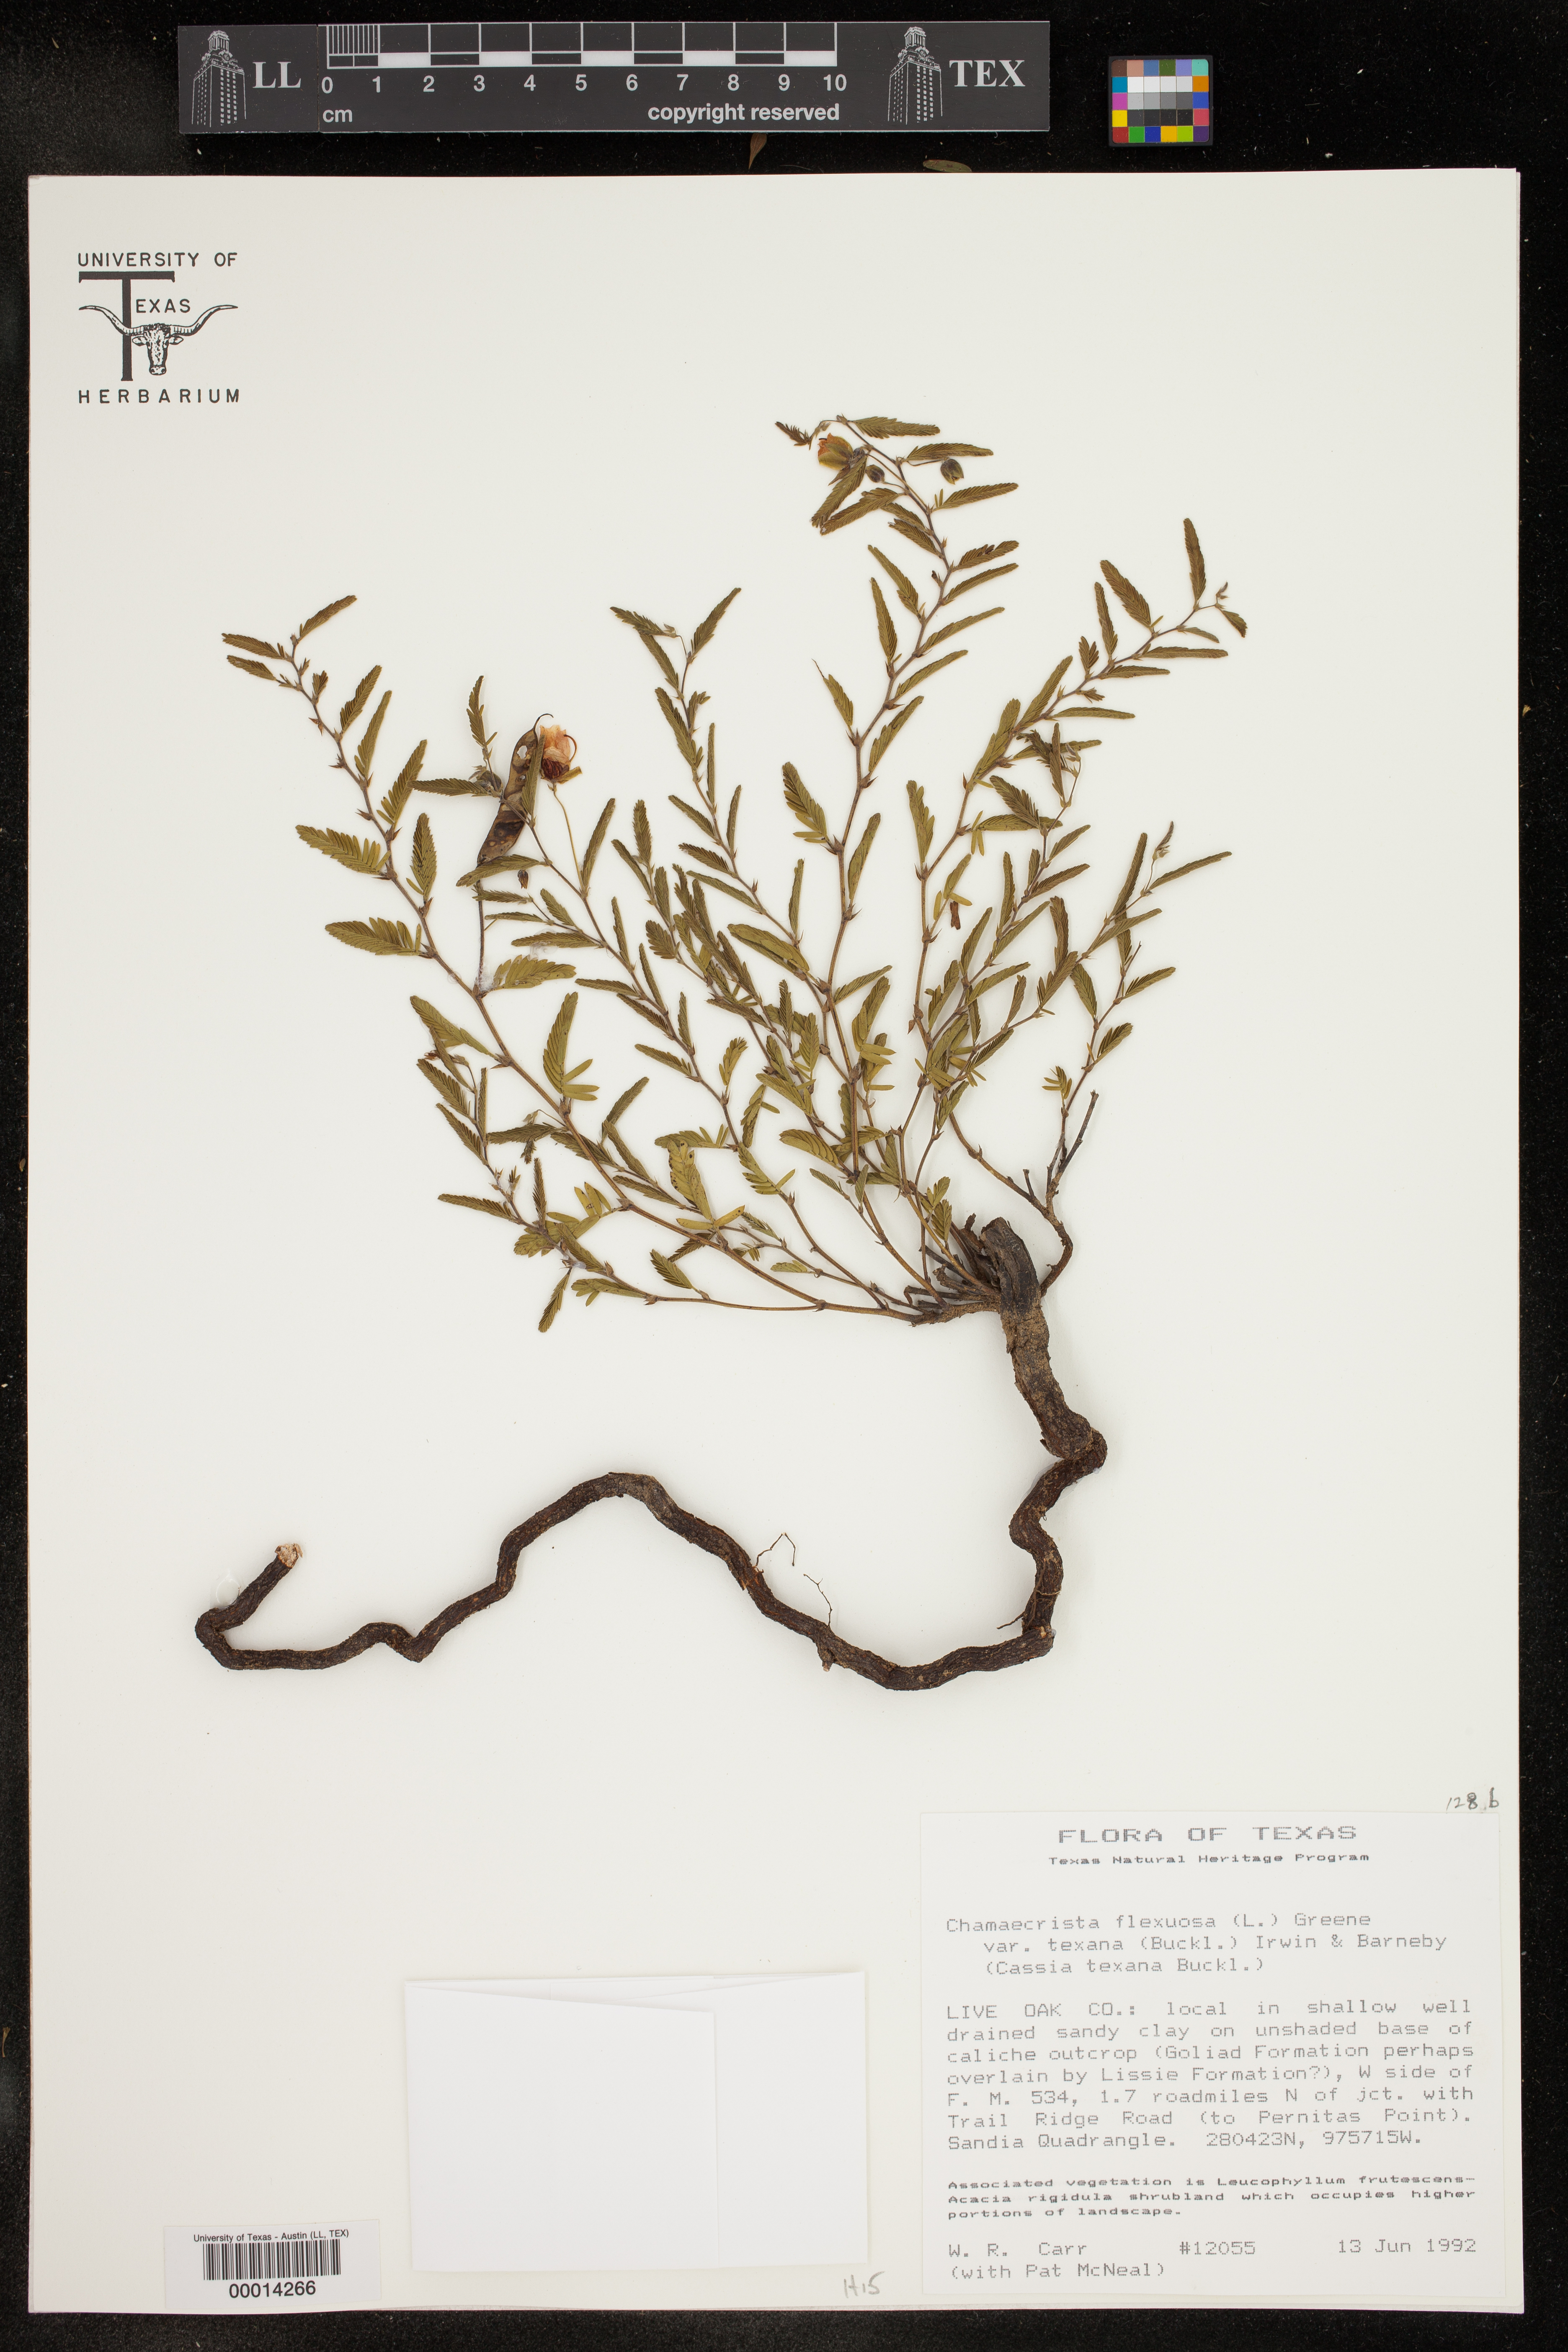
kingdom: Plantae
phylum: Tracheophyta
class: Magnoliopsida
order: Fabales
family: Fabaceae
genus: Chamaecrista
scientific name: Chamaecrista flexuosa
